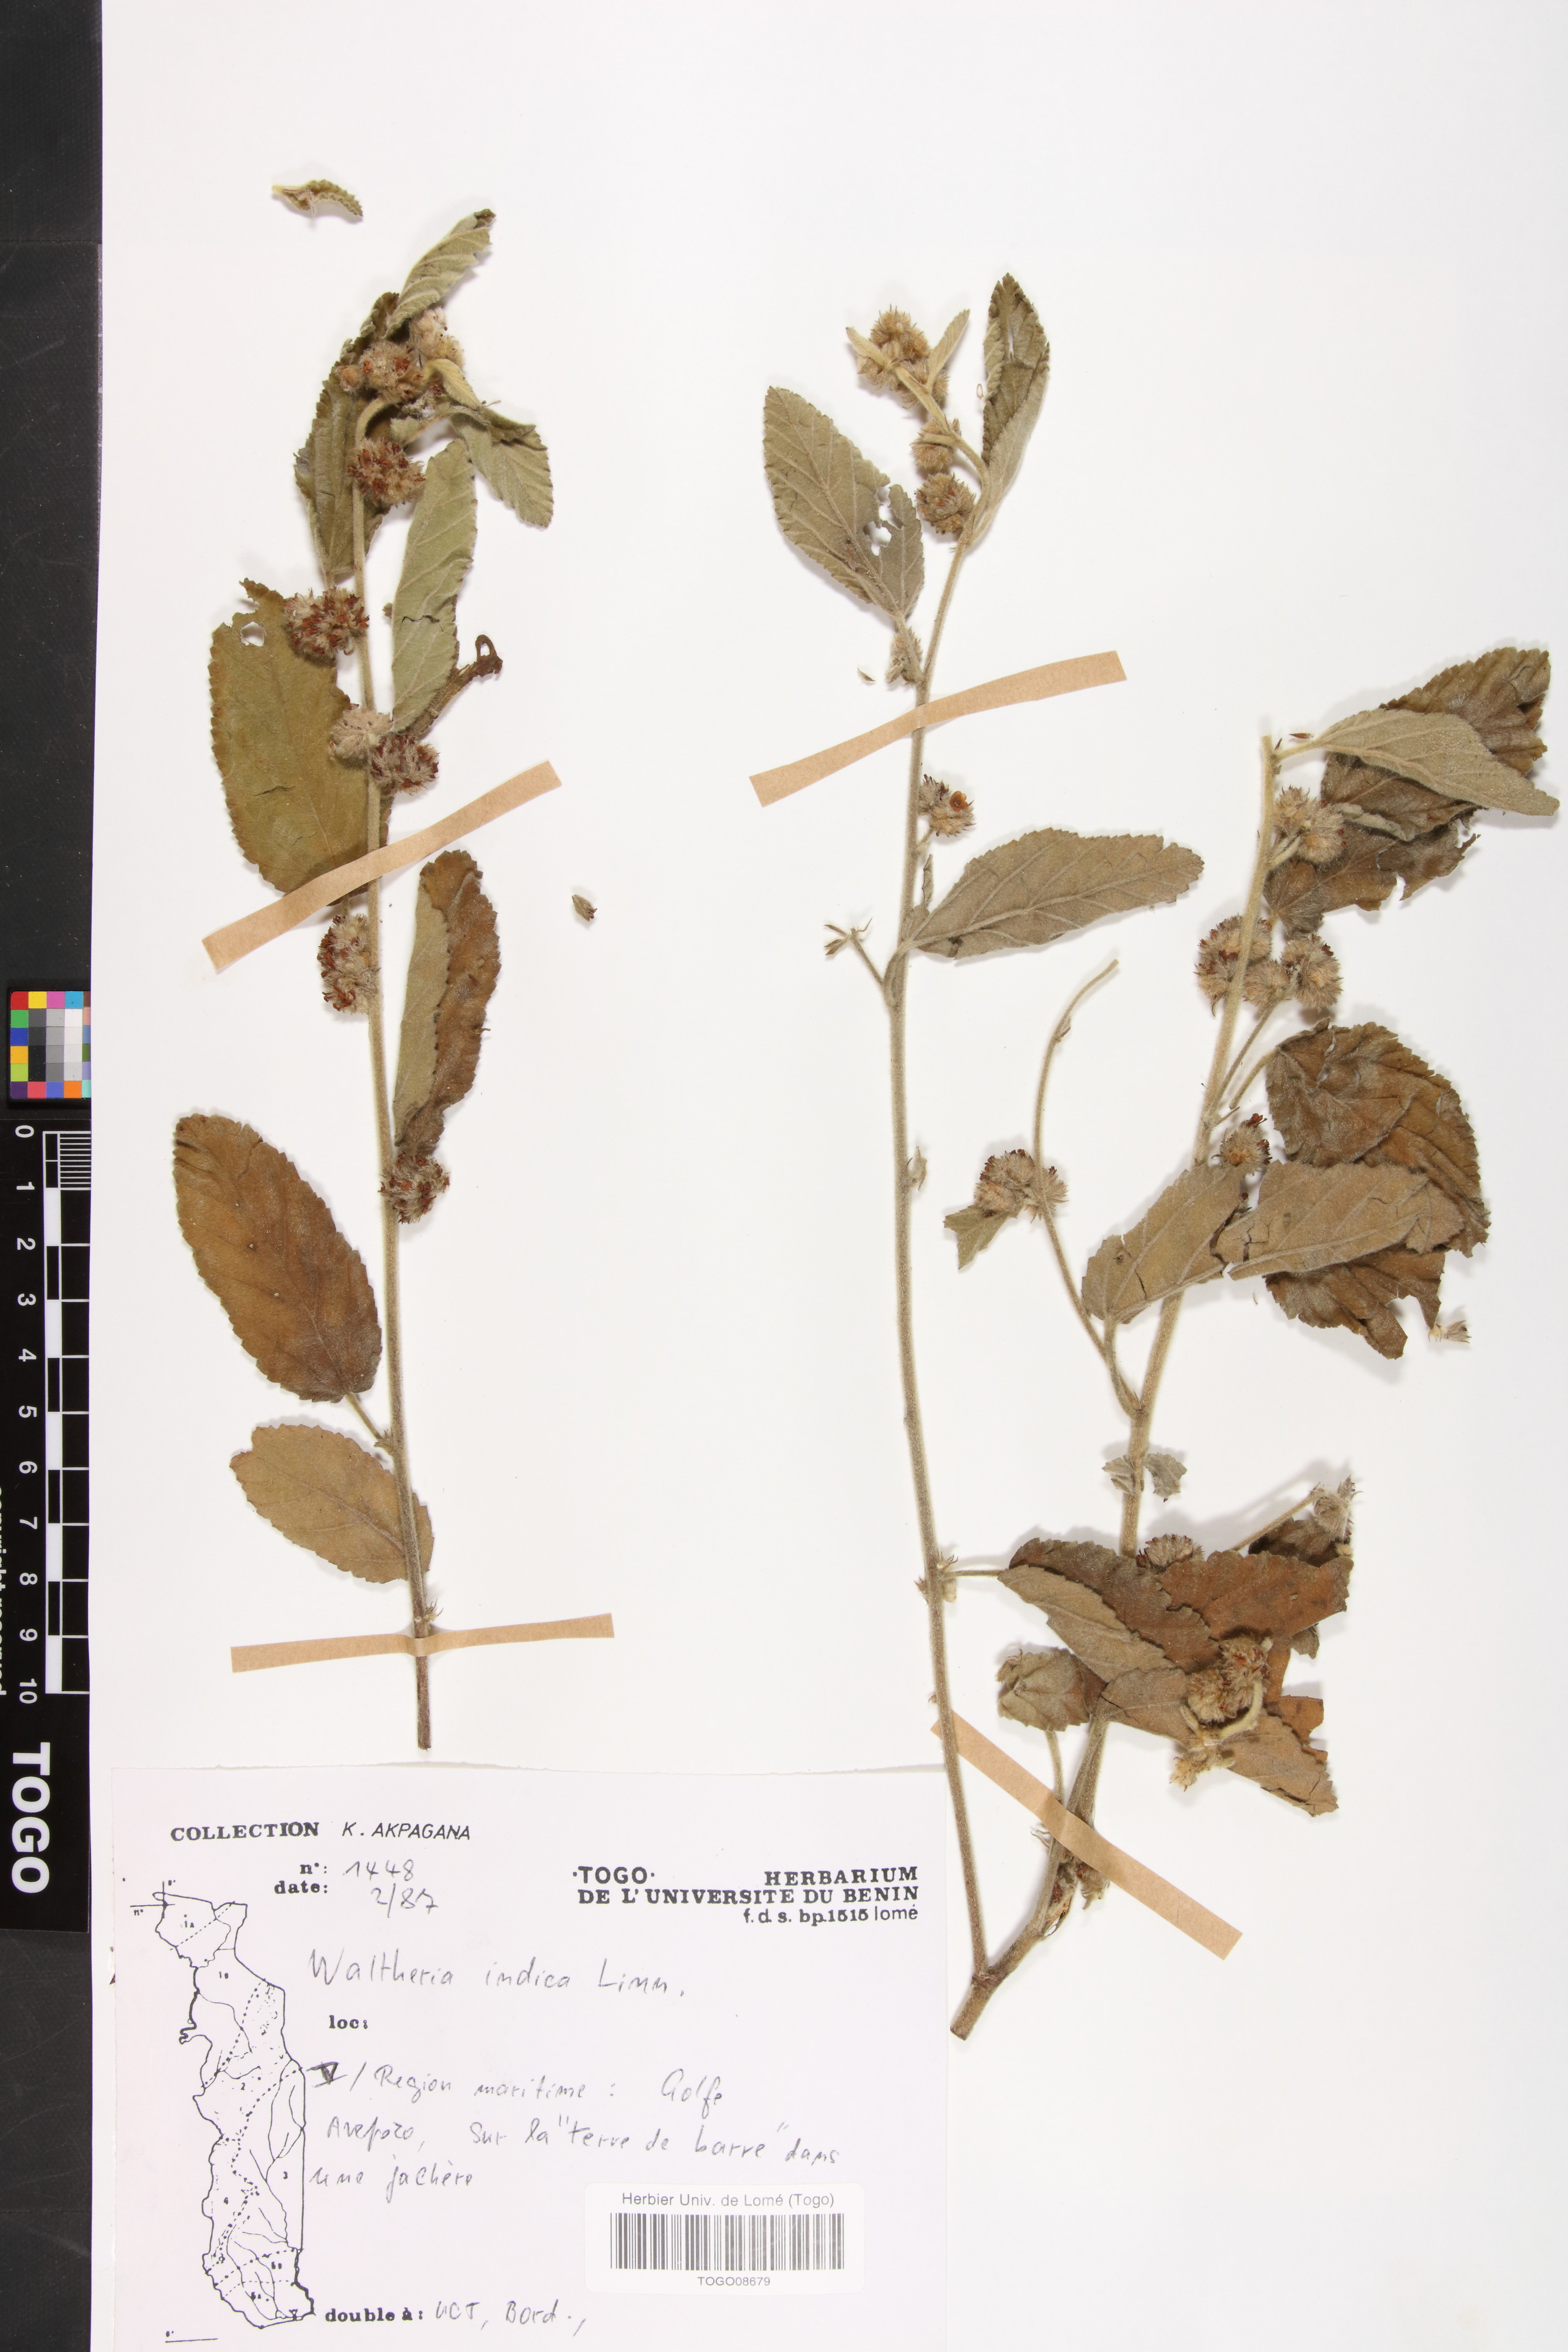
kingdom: Plantae
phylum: Tracheophyta
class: Magnoliopsida
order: Malvales
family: Malvaceae
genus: Waltheria
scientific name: Waltheria indica
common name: Leather-coat
